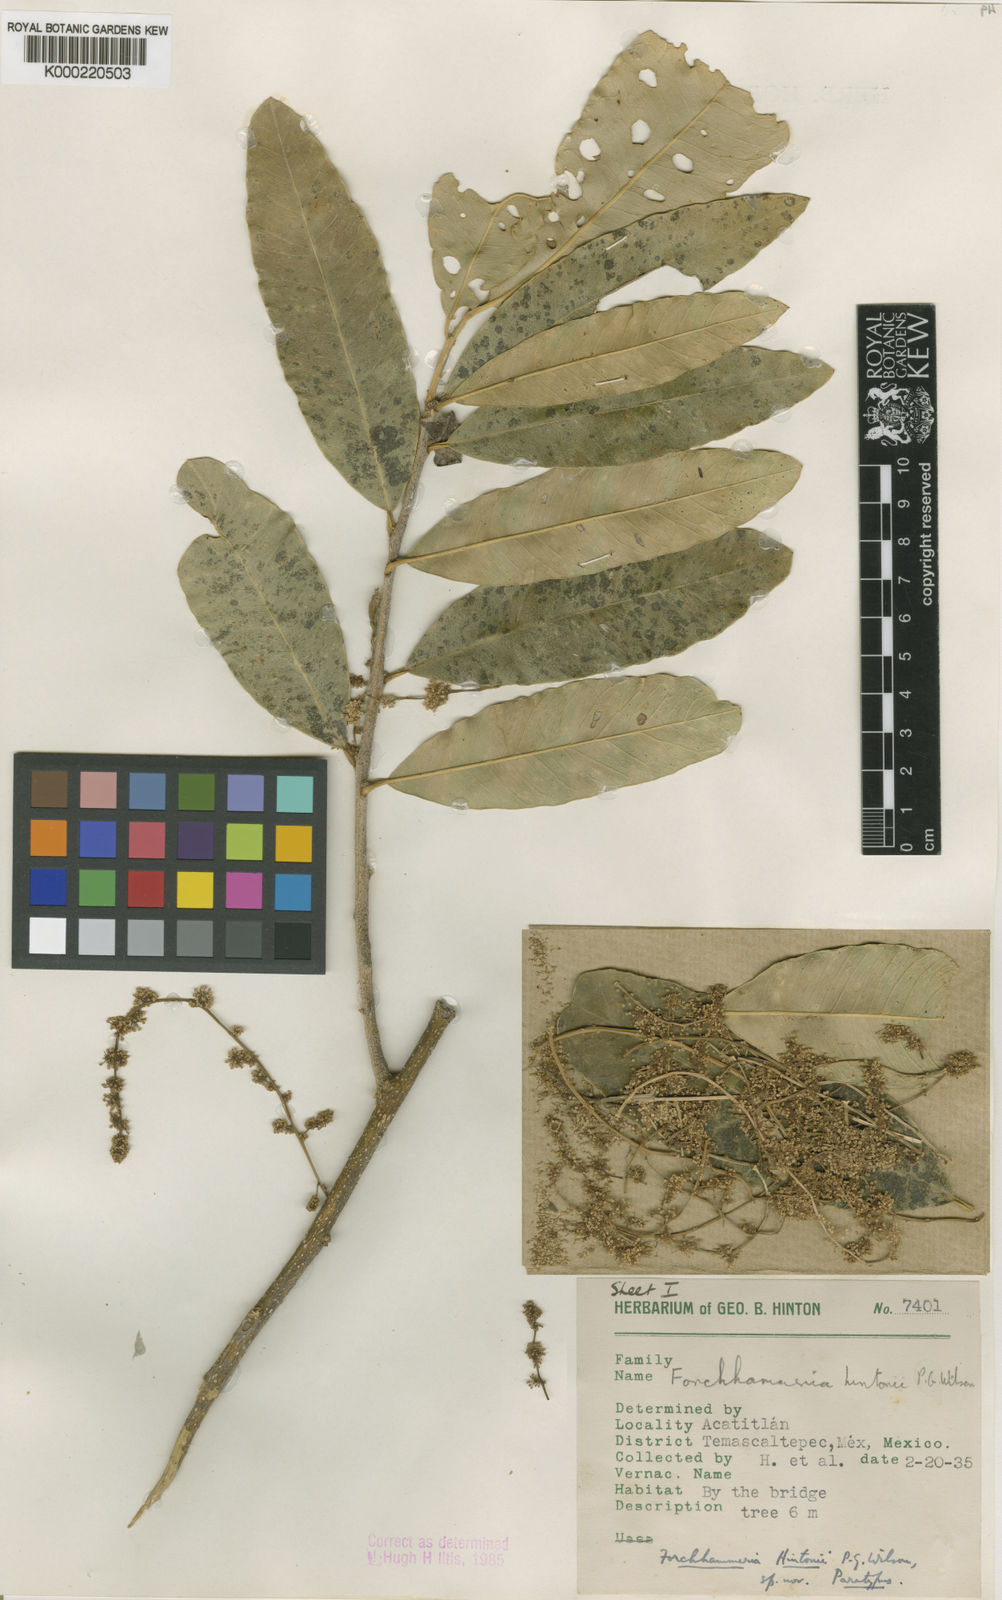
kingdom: Plantae
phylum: Tracheophyta
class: Magnoliopsida
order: Brassicales
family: Stixaceae
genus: Forchhammeria
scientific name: Forchhammeria hintonii
